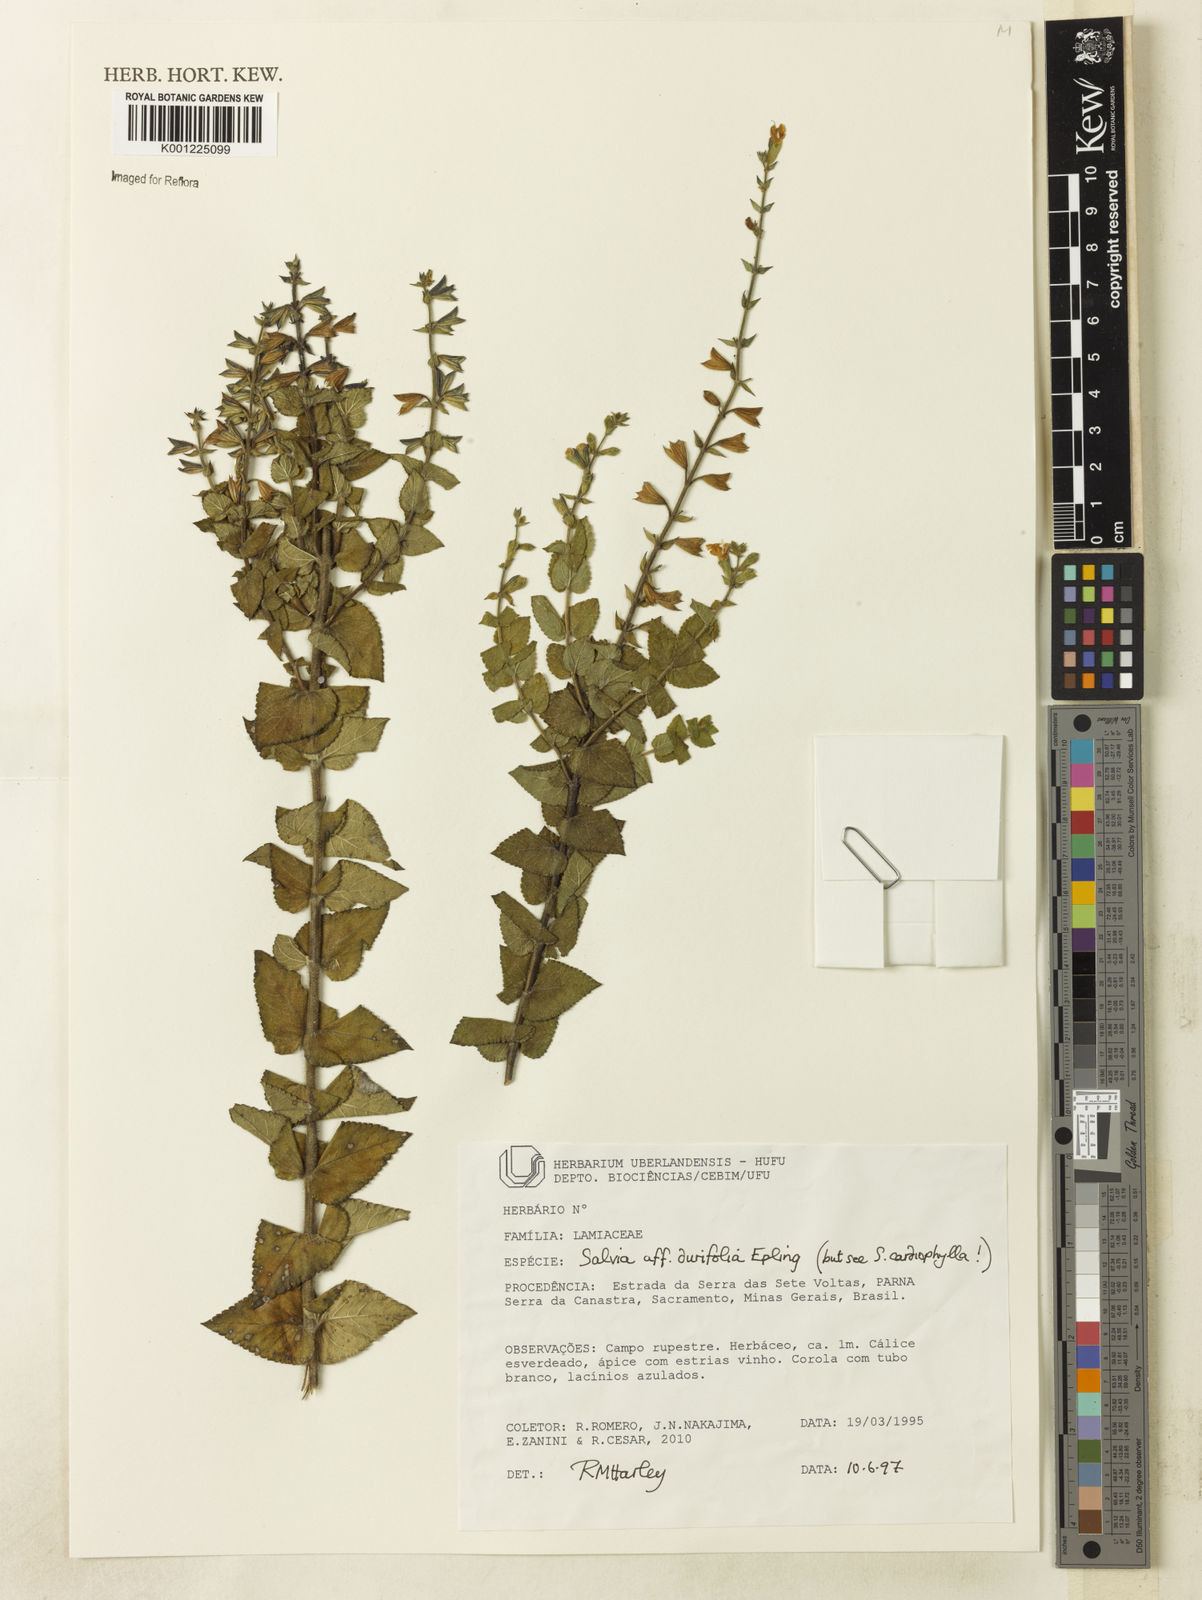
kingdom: Plantae
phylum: Tracheophyta
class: Magnoliopsida
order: Lamiales
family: Lamiaceae
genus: Salvia
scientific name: Salvia ovalifolia
